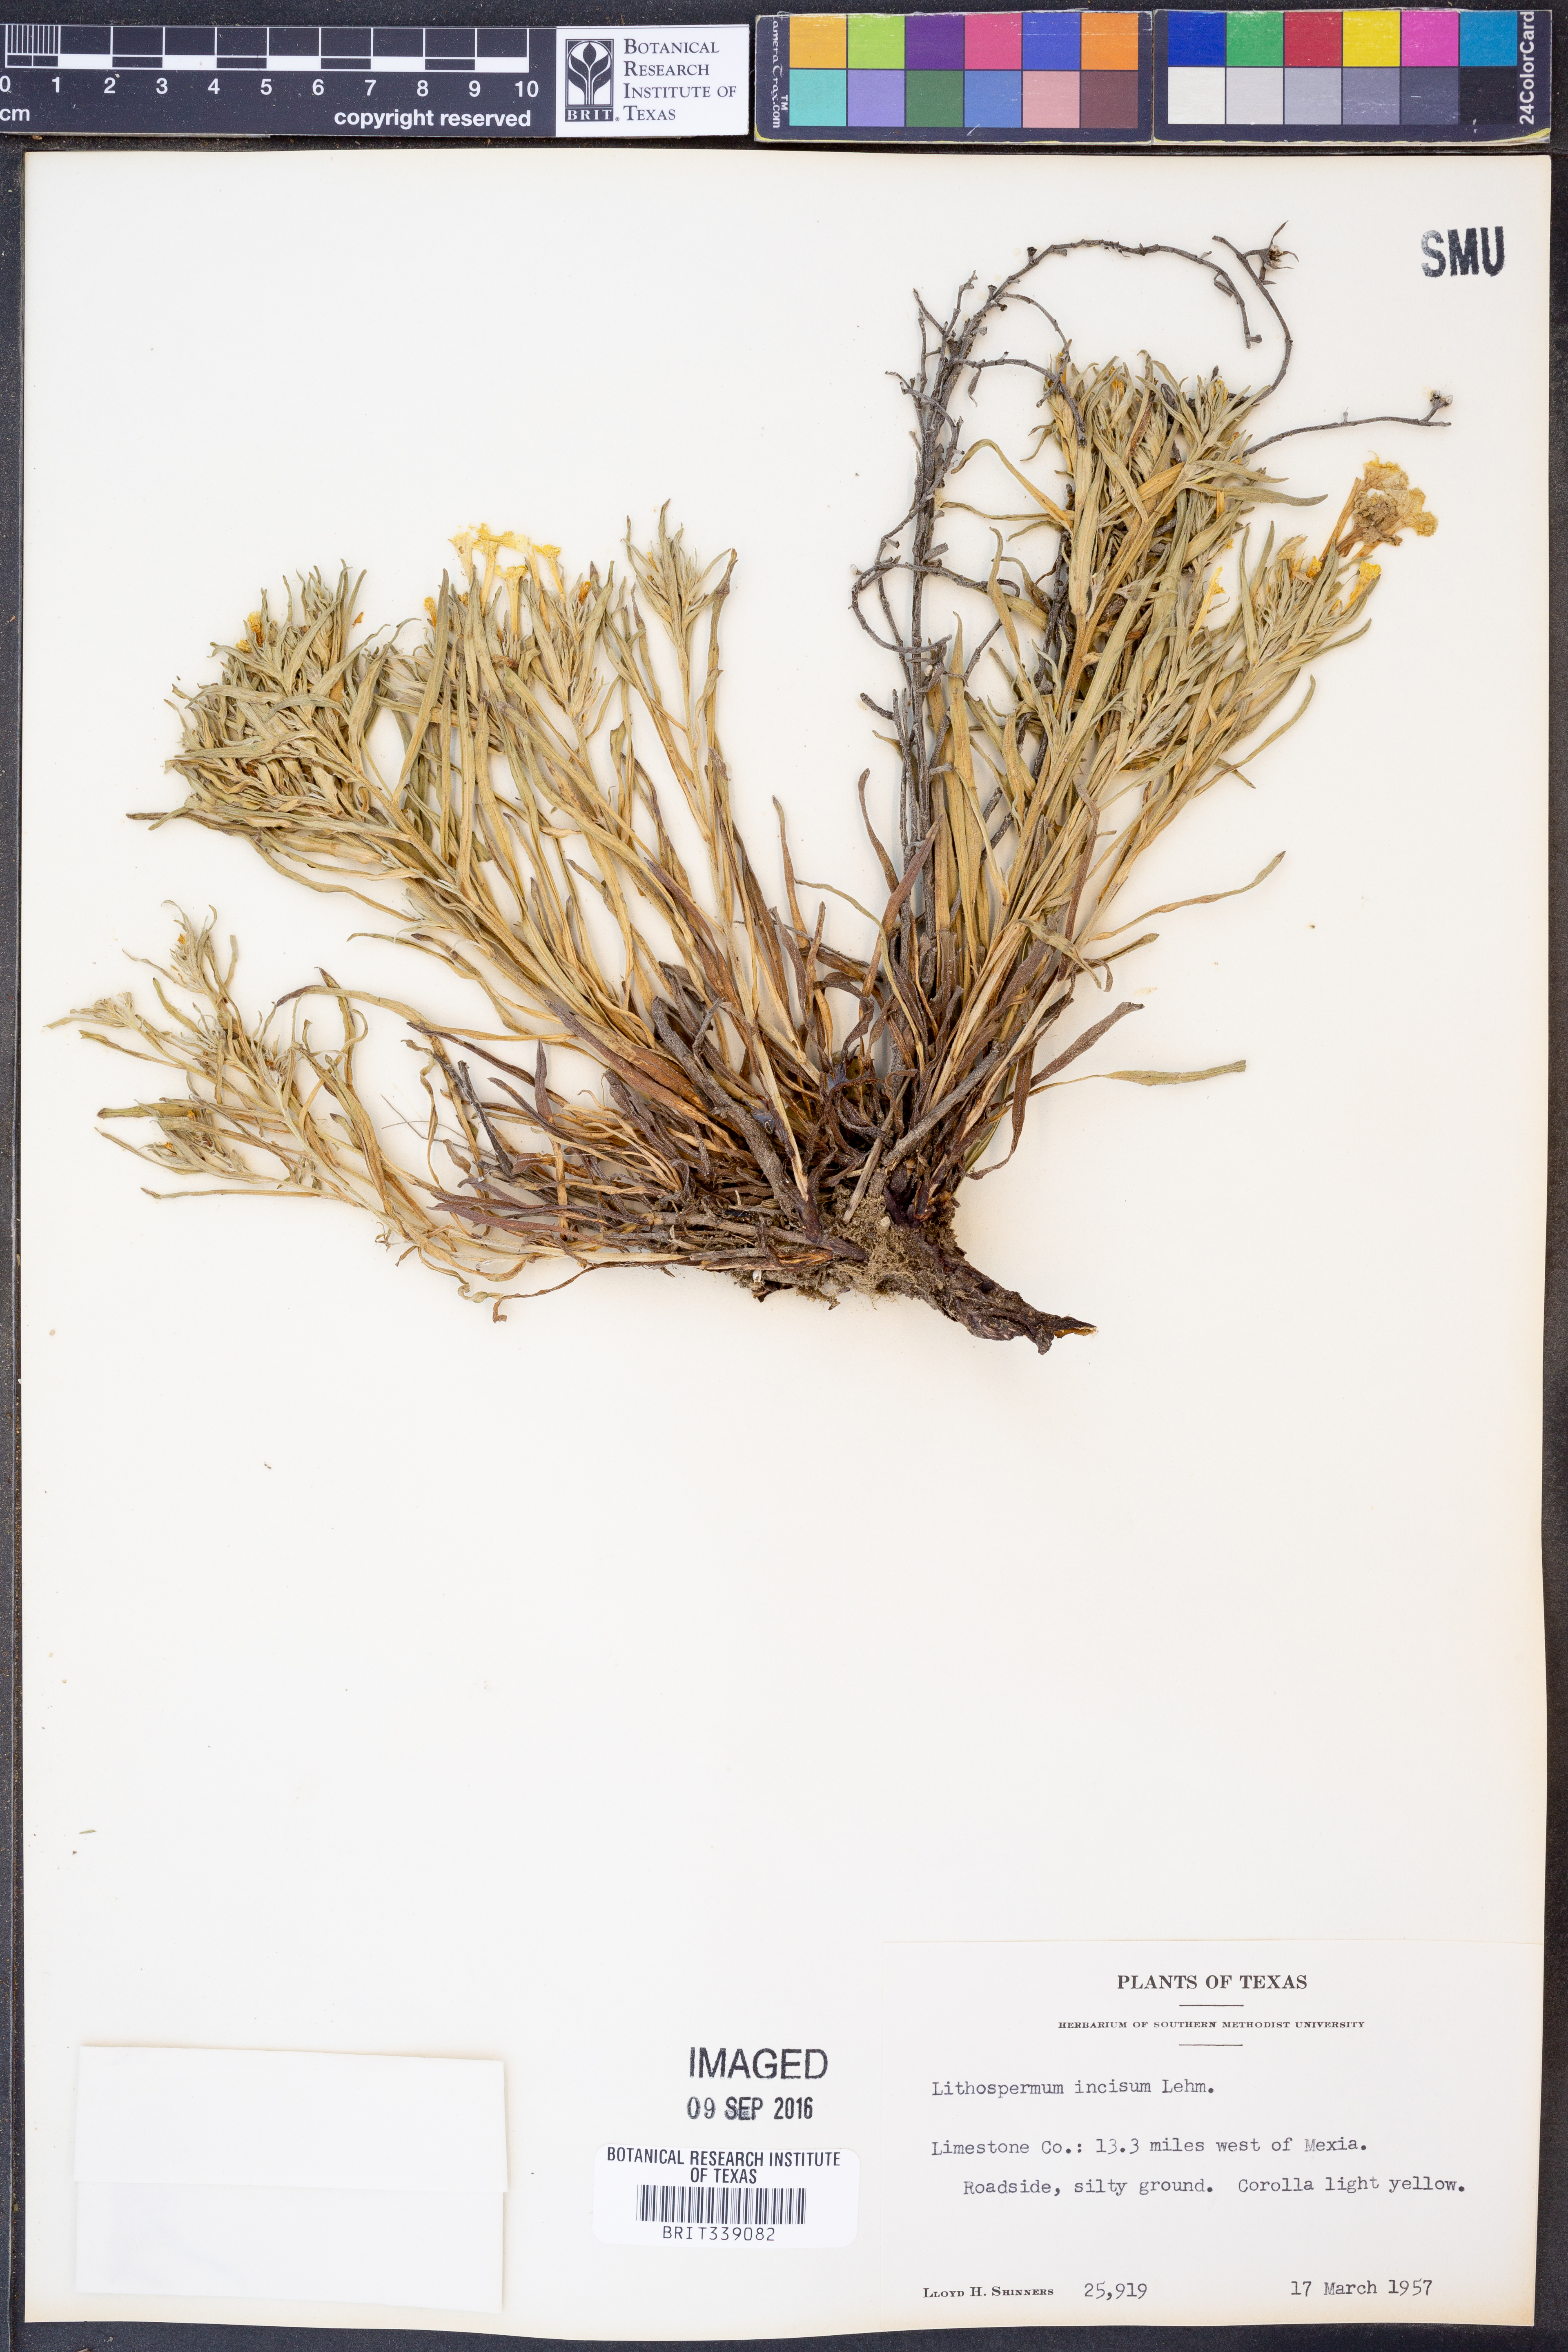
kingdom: Plantae
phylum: Tracheophyta
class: Magnoliopsida
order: Boraginales
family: Boraginaceae
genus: Lithospermum
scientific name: Lithospermum incisum
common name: Fringed gromwell
